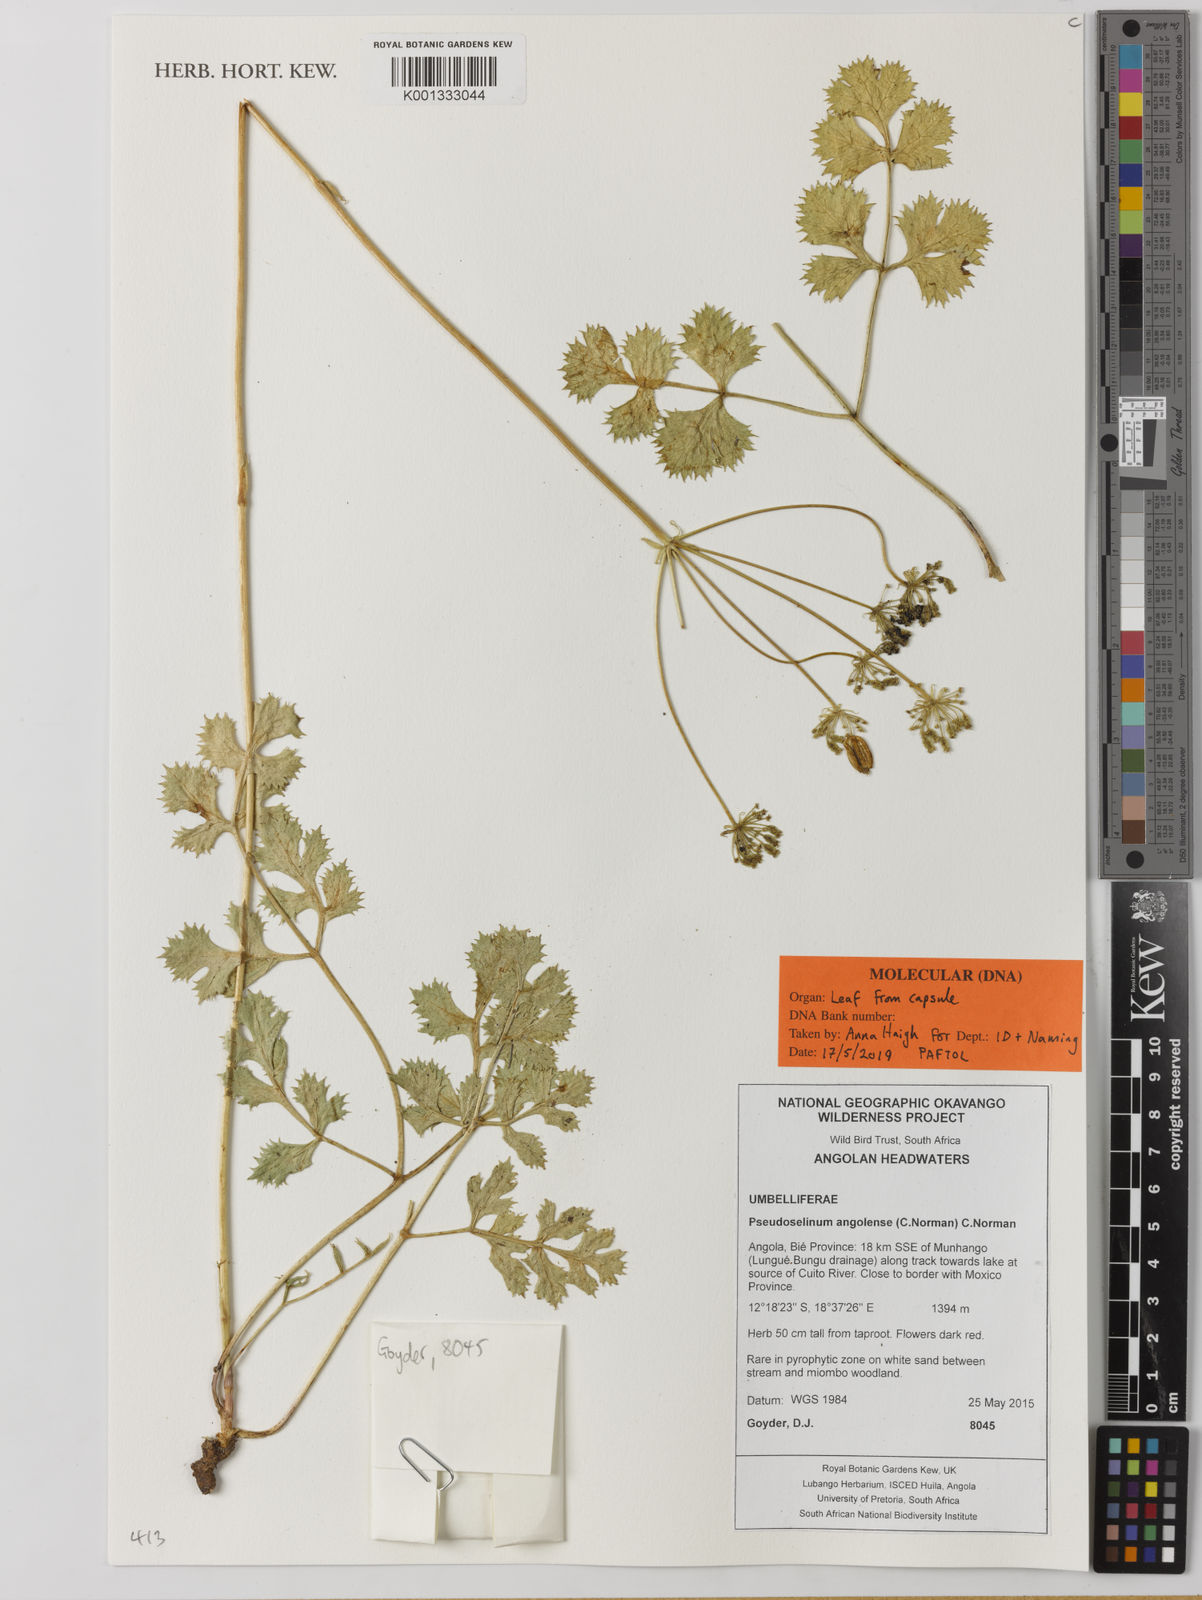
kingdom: Plantae
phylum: Tracheophyta
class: Magnoliopsida
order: Apiales
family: Apiaceae
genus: Pseudoselinum
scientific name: Pseudoselinum angolense
